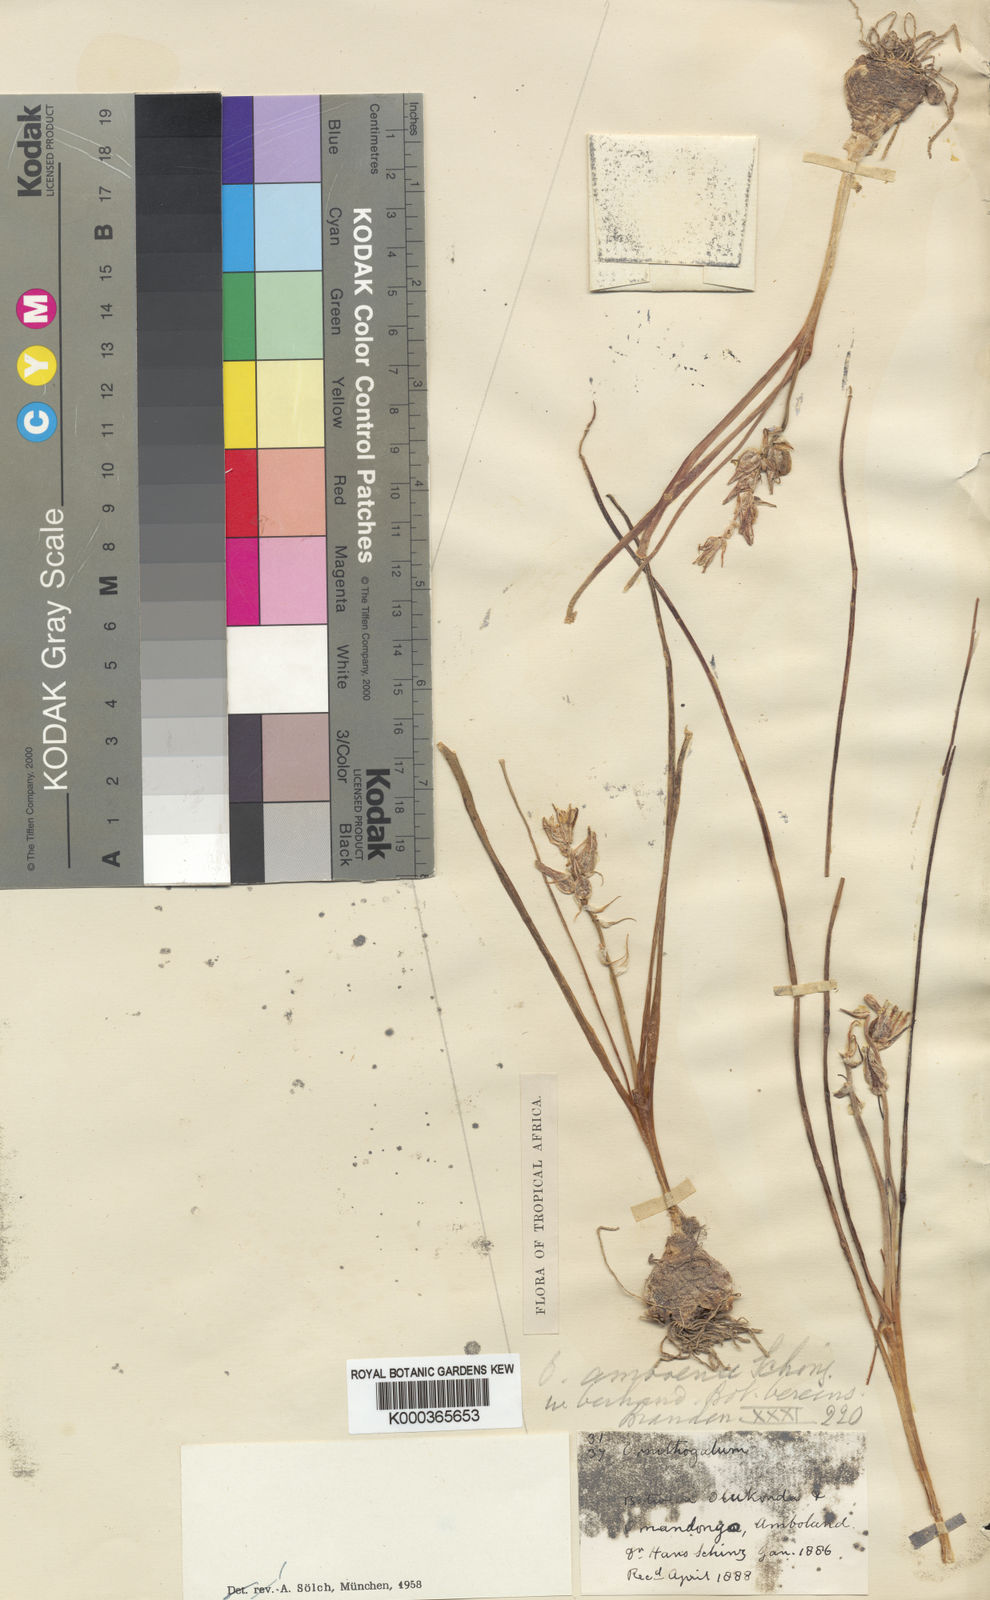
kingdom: Plantae
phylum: Tracheophyta
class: Liliopsida
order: Asparagales
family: Asparagaceae
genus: Albuca
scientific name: Albuca amboensis
